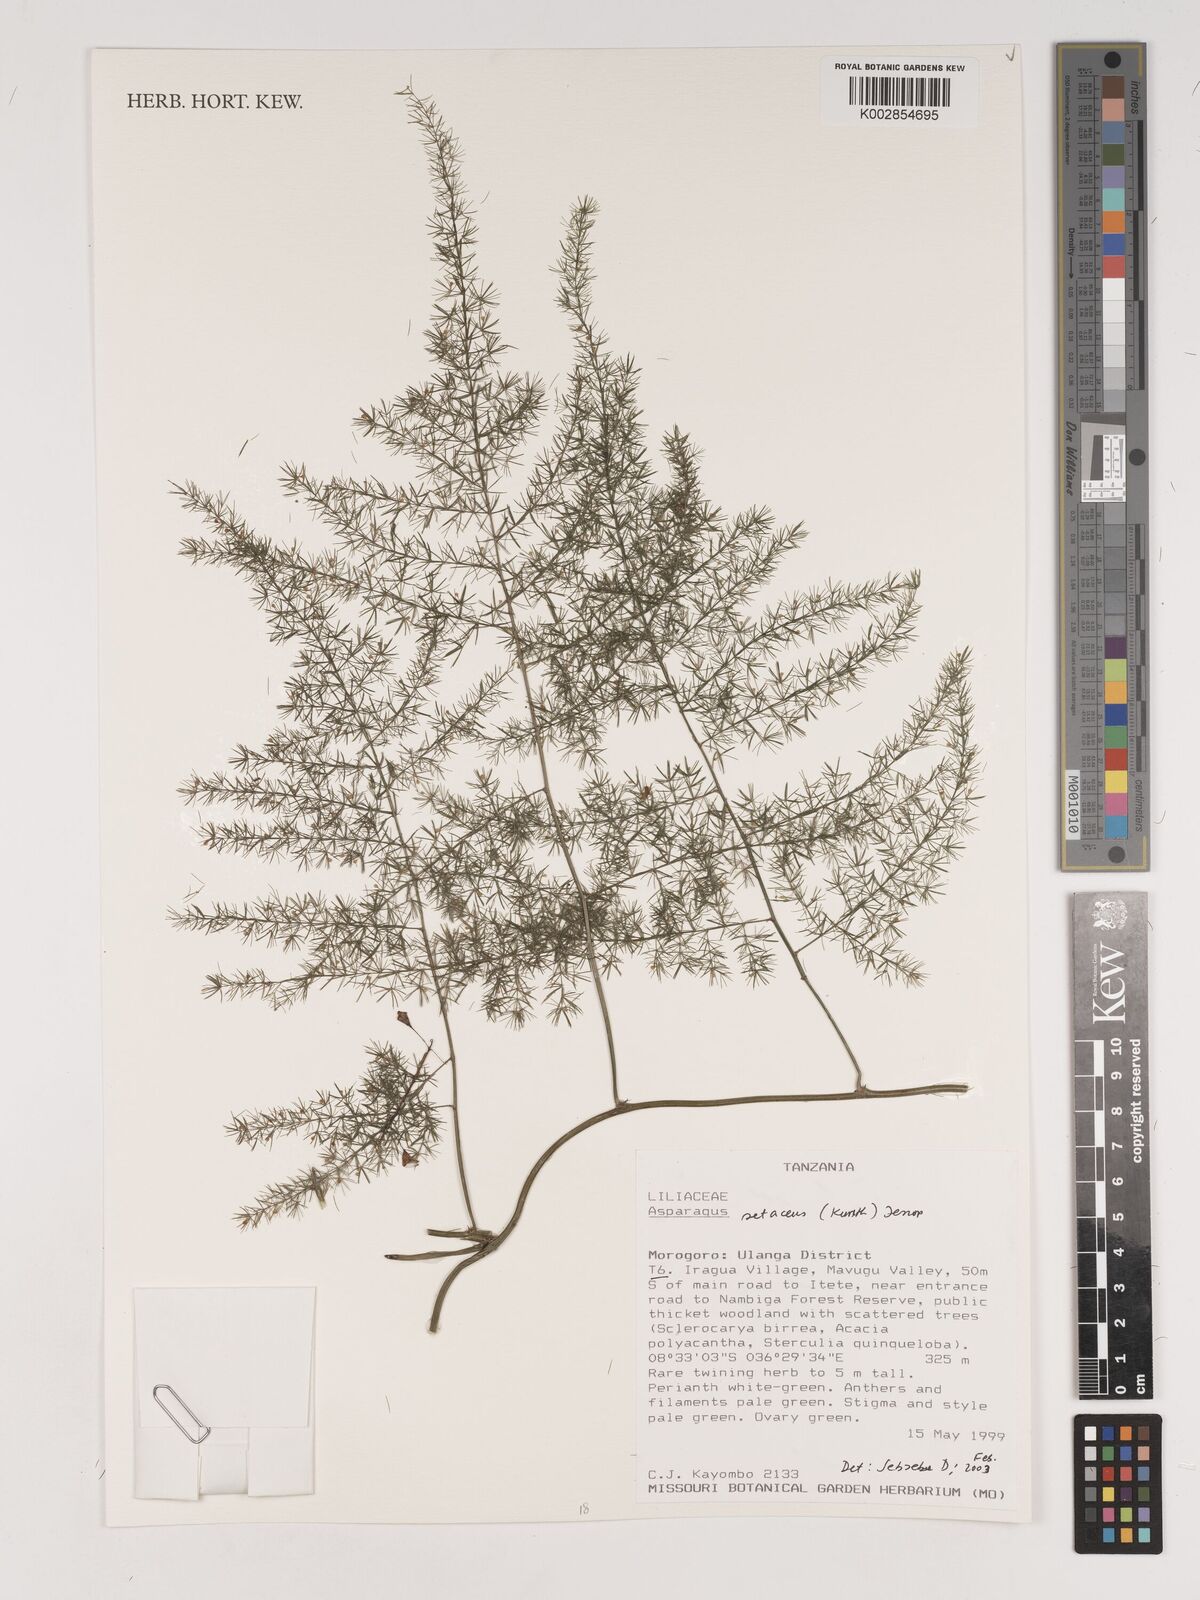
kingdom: Plantae
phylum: Tracheophyta
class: Liliopsida
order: Asparagales
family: Asparagaceae
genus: Asparagus
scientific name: Asparagus setaceus
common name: Common asparagus fern
